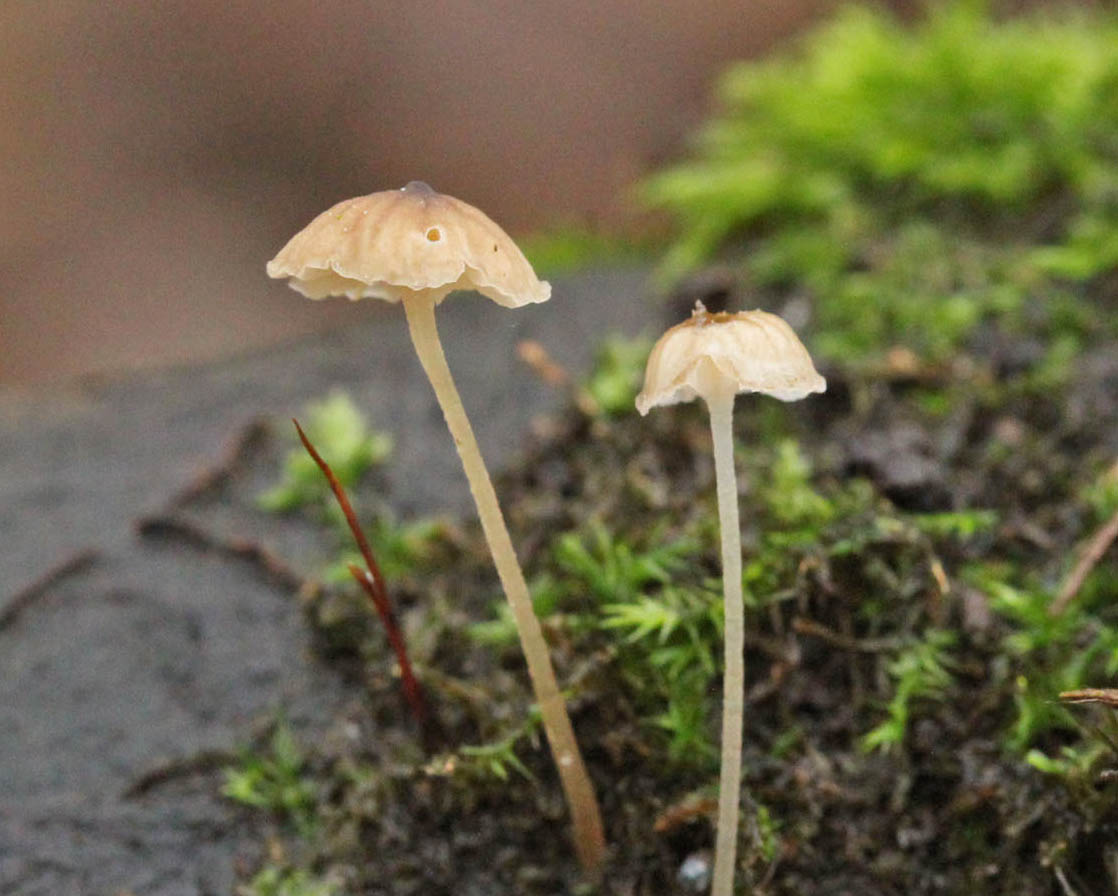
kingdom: Fungi
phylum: Basidiomycota
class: Agaricomycetes
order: Agaricales
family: Porotheleaceae
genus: Phloeomana
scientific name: Phloeomana speirea
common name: kvist-huesvamp
